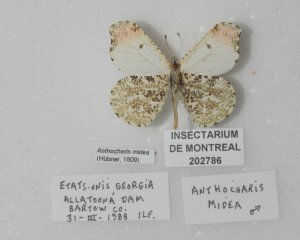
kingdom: Animalia
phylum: Arthropoda
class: Insecta
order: Lepidoptera
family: Pieridae
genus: Anthocharis
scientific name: Anthocharis midea
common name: Falcate Orangetip
